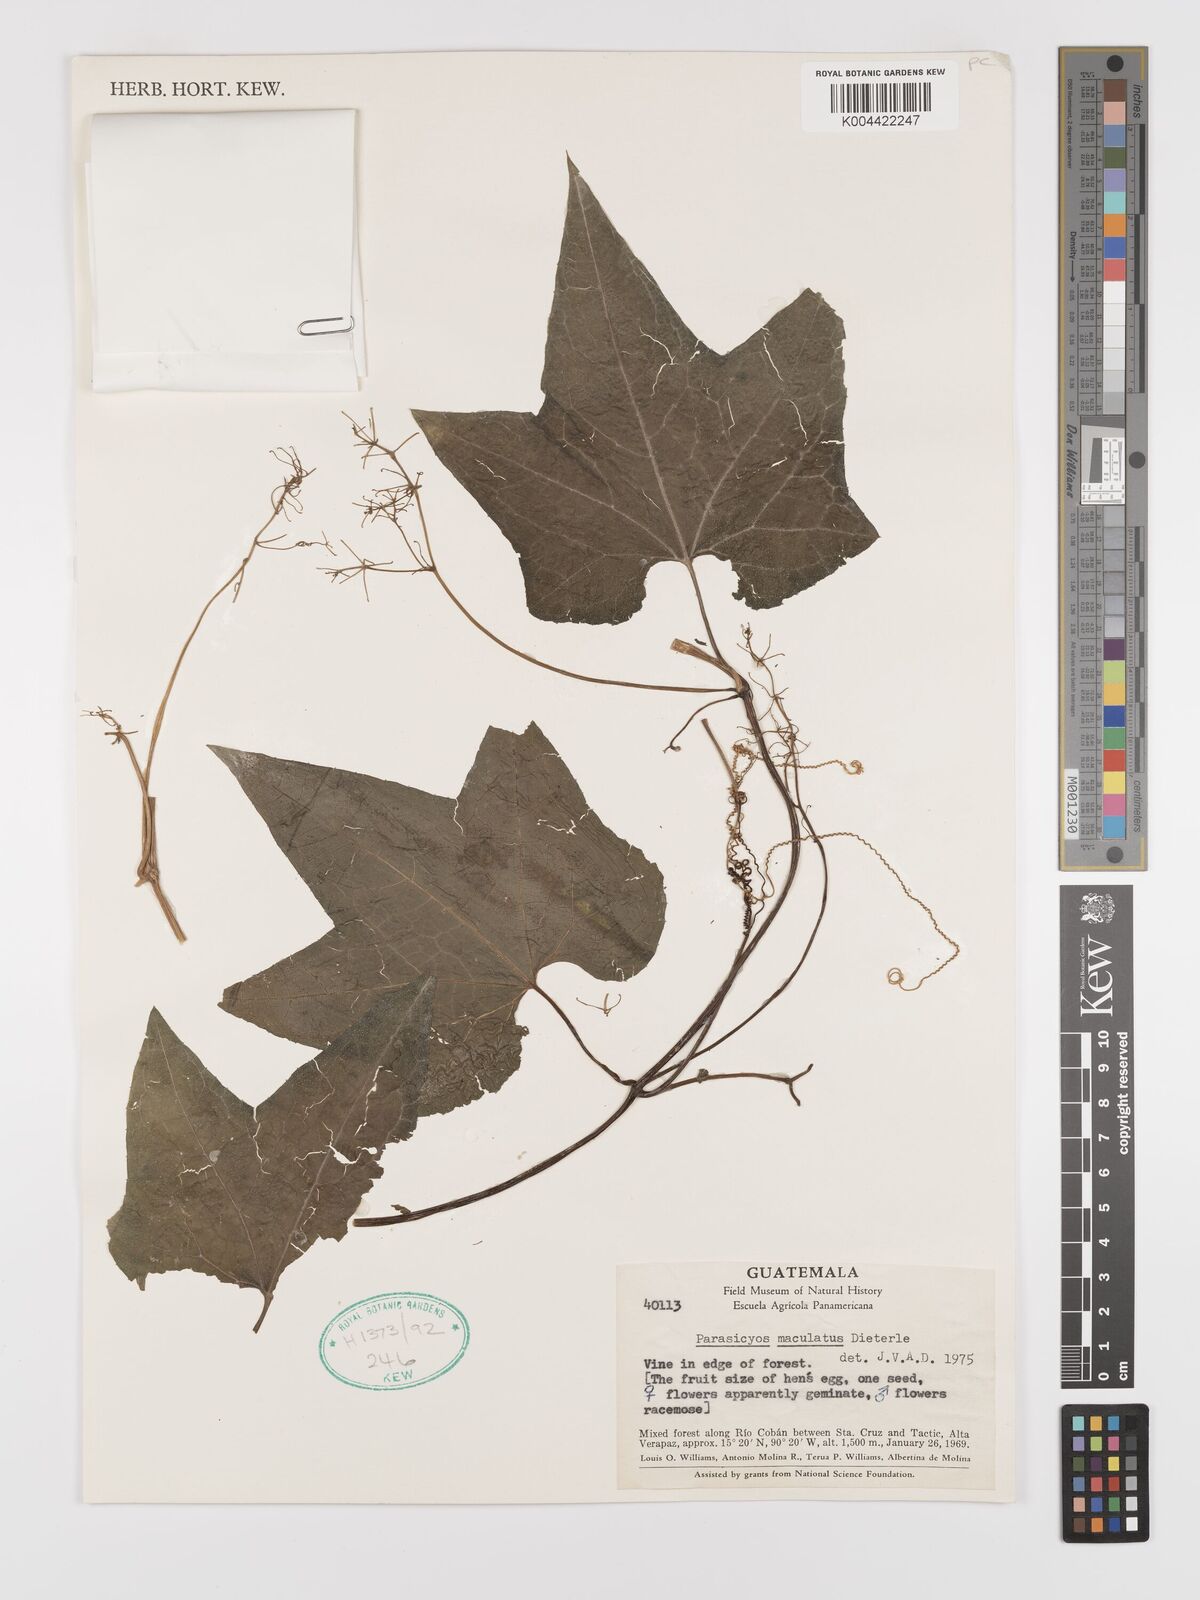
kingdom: Plantae
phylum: Tracheophyta
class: Magnoliopsida
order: Cucurbitales
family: Cucurbitaceae
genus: Parasicyos
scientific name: Parasicyos maculatus
